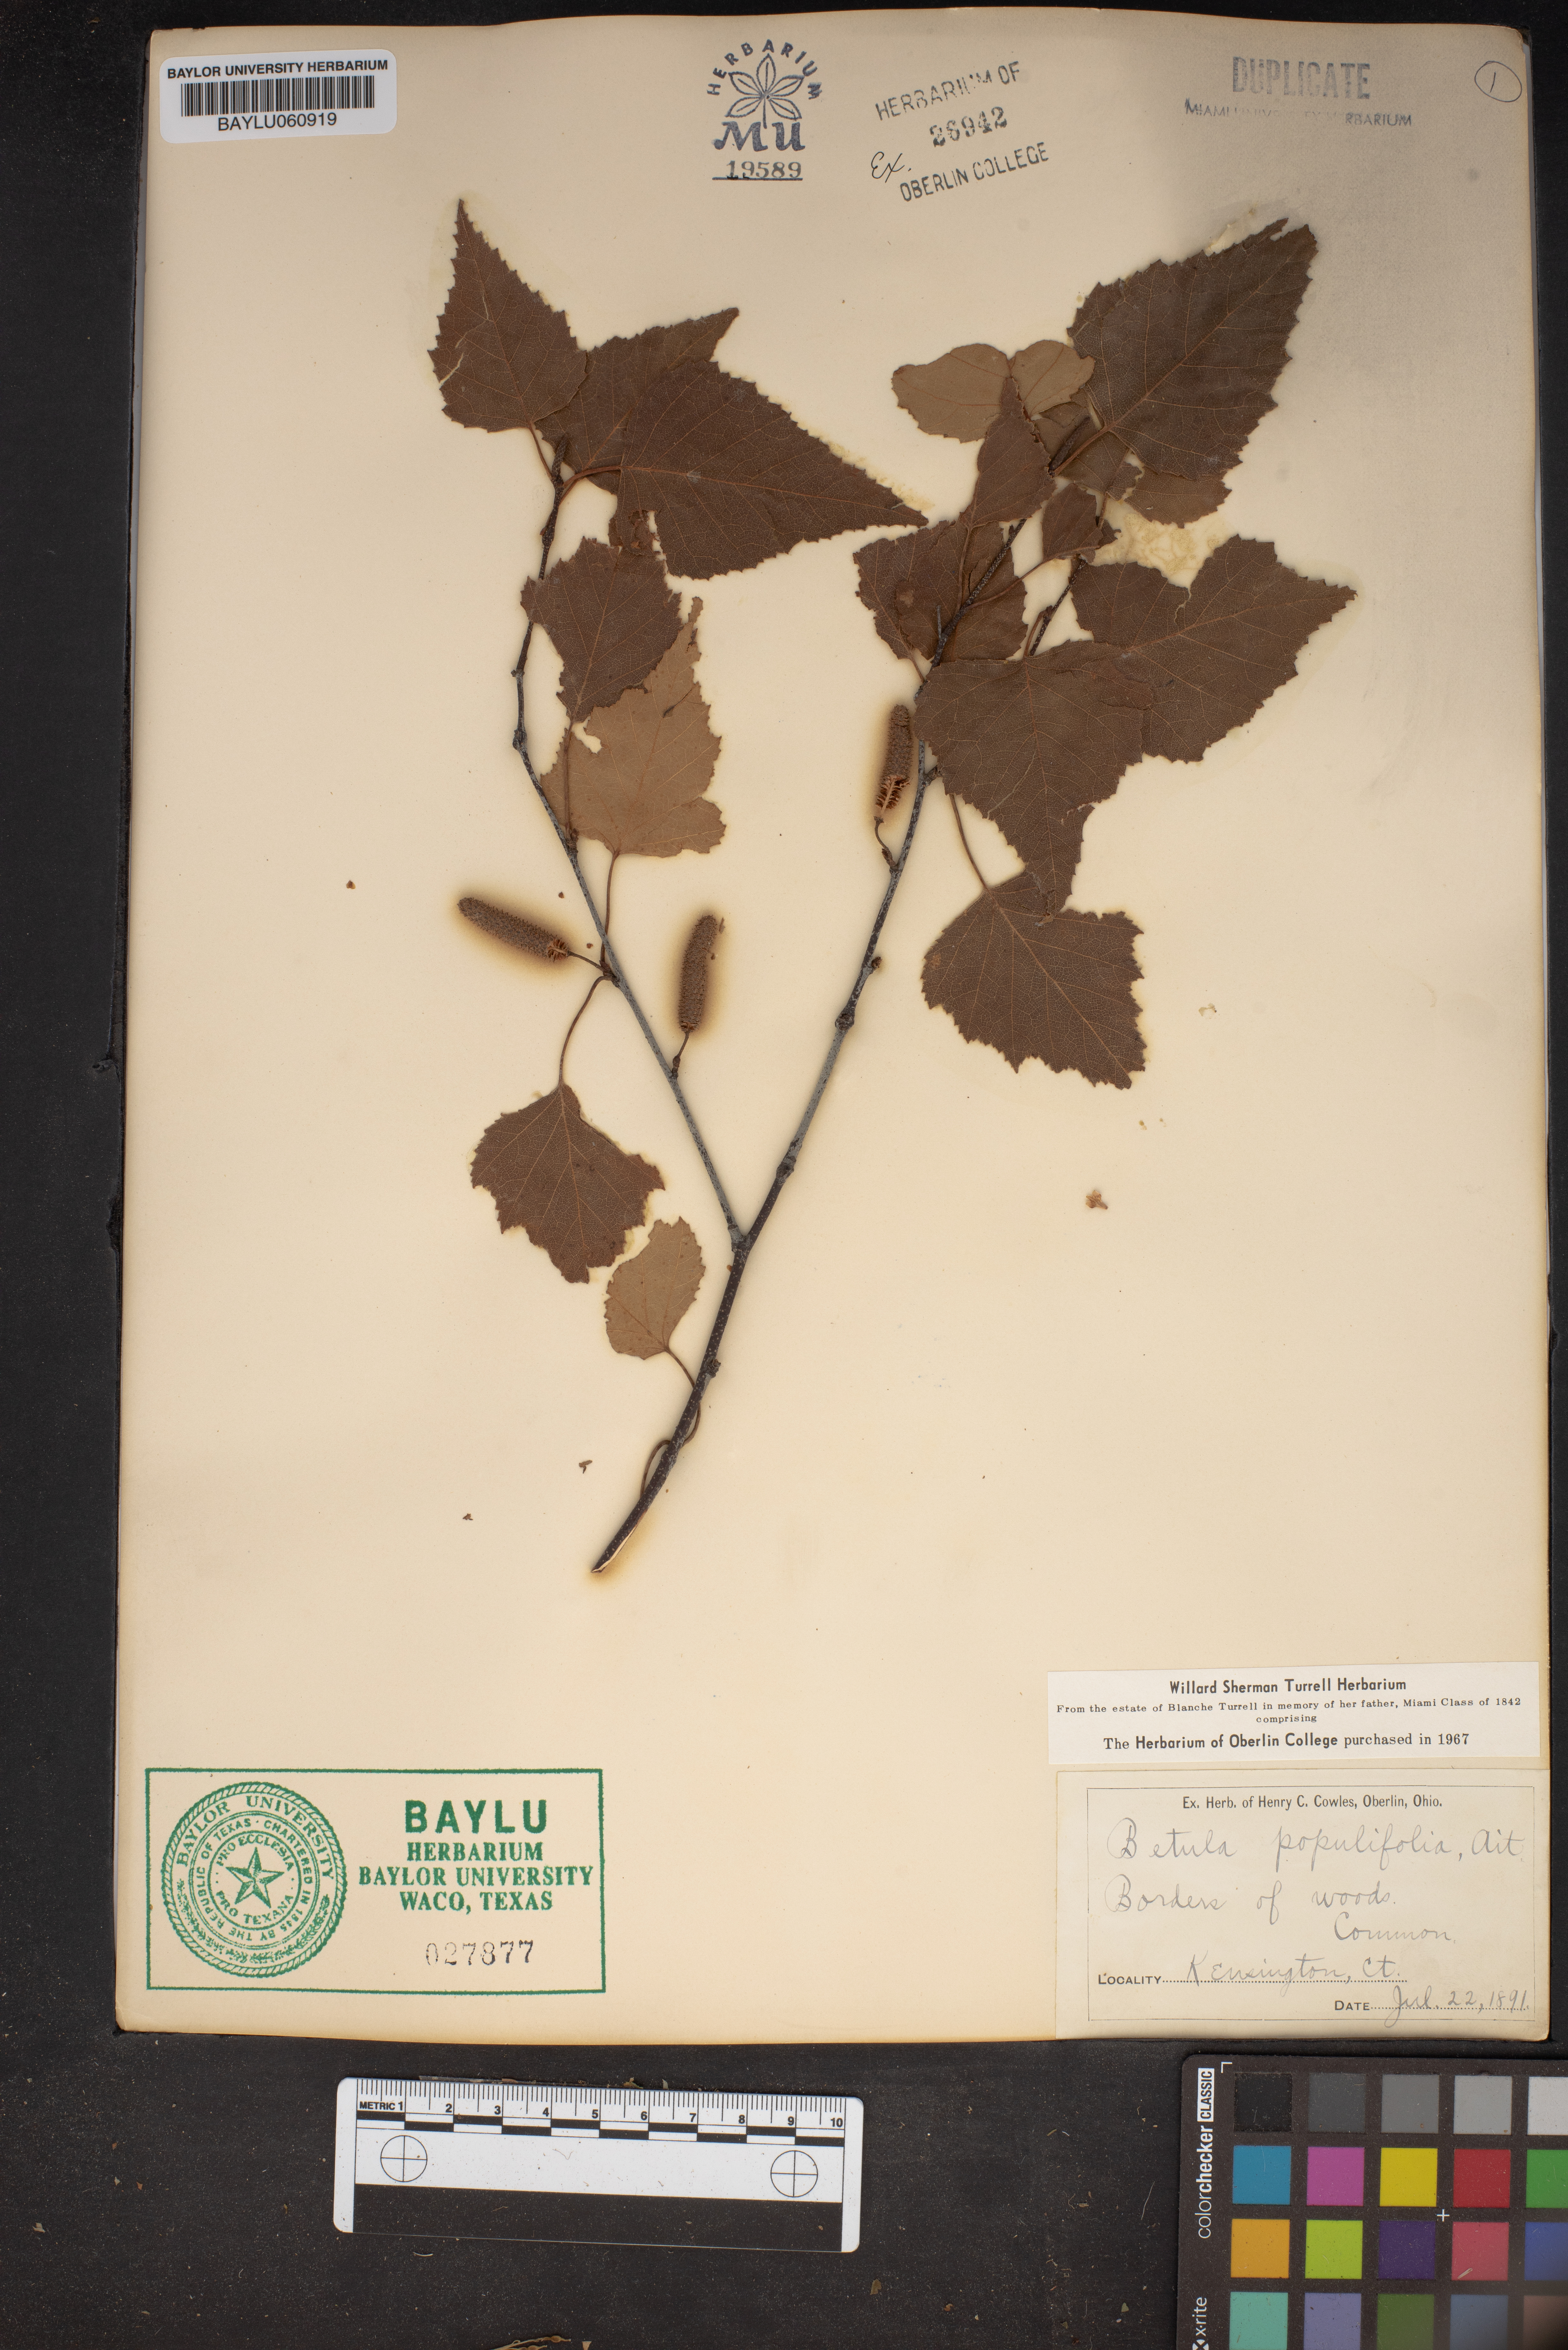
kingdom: Plantae
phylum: Tracheophyta
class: Magnoliopsida
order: Fagales
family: Betulaceae
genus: Betula
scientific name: Betula populifolia
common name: Fire birch
